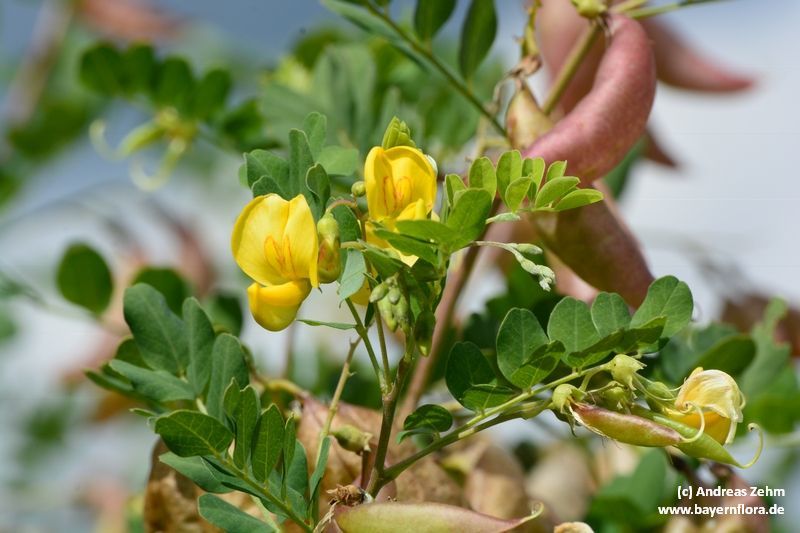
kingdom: Plantae
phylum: Tracheophyta
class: Magnoliopsida
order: Fabales
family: Fabaceae
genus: Colutea
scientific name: Colutea arborescens
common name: Bladder-senna
